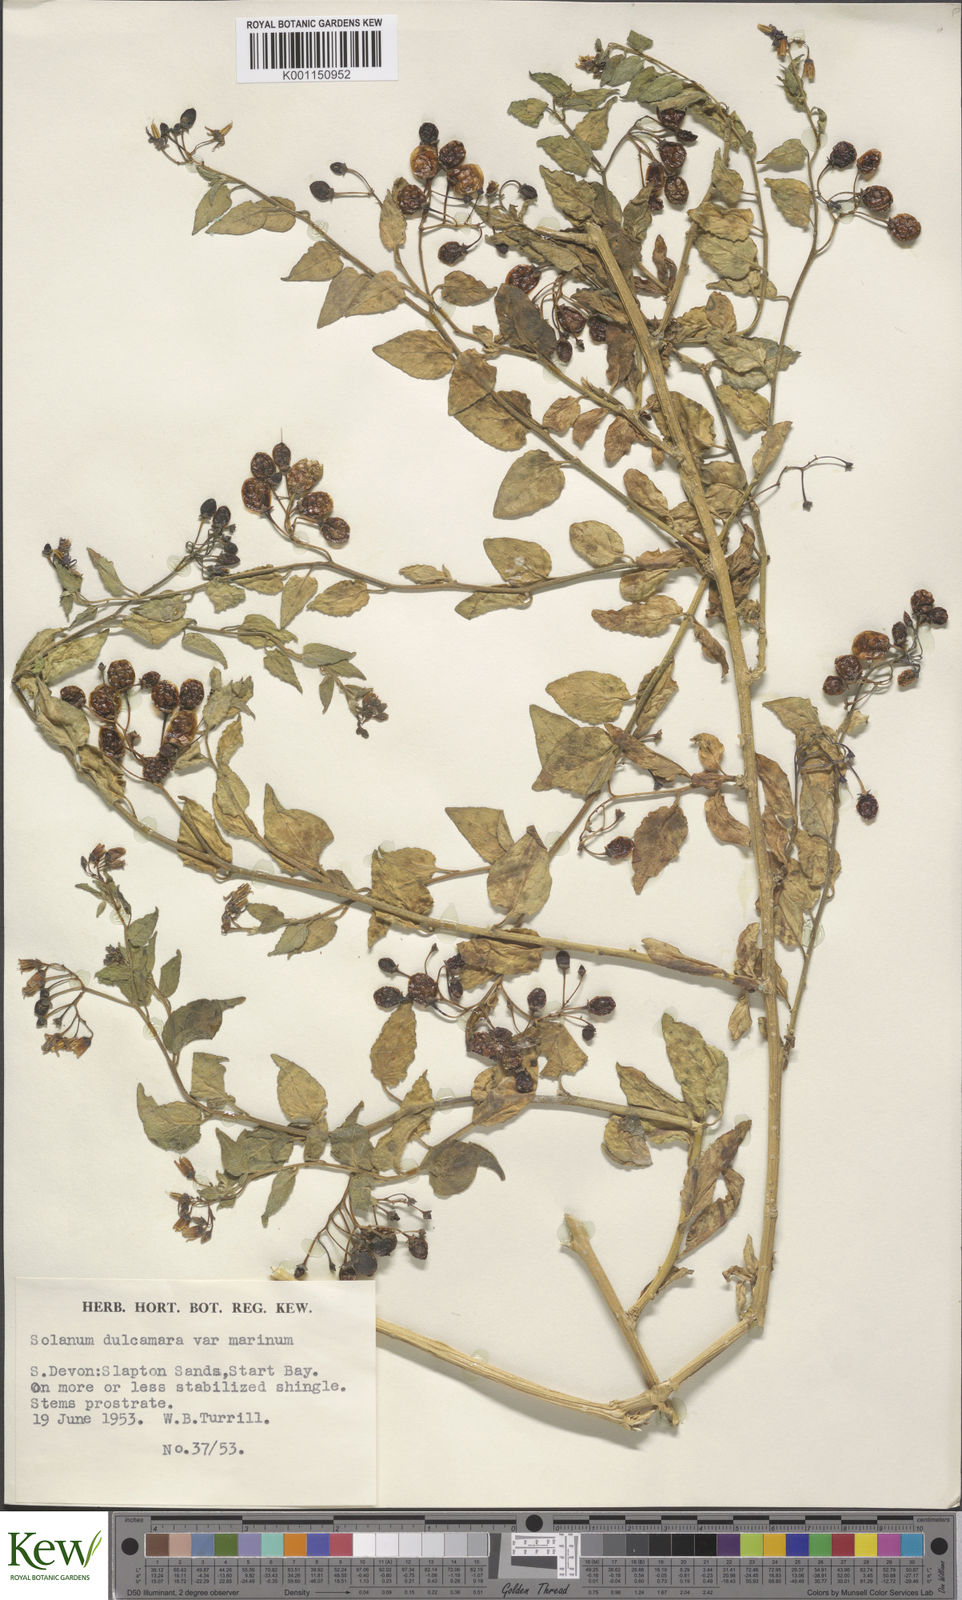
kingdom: Plantae
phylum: Tracheophyta
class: Magnoliopsida
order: Solanales
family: Solanaceae
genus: Solanum
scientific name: Solanum dulcamara
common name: Climbing nightshade
